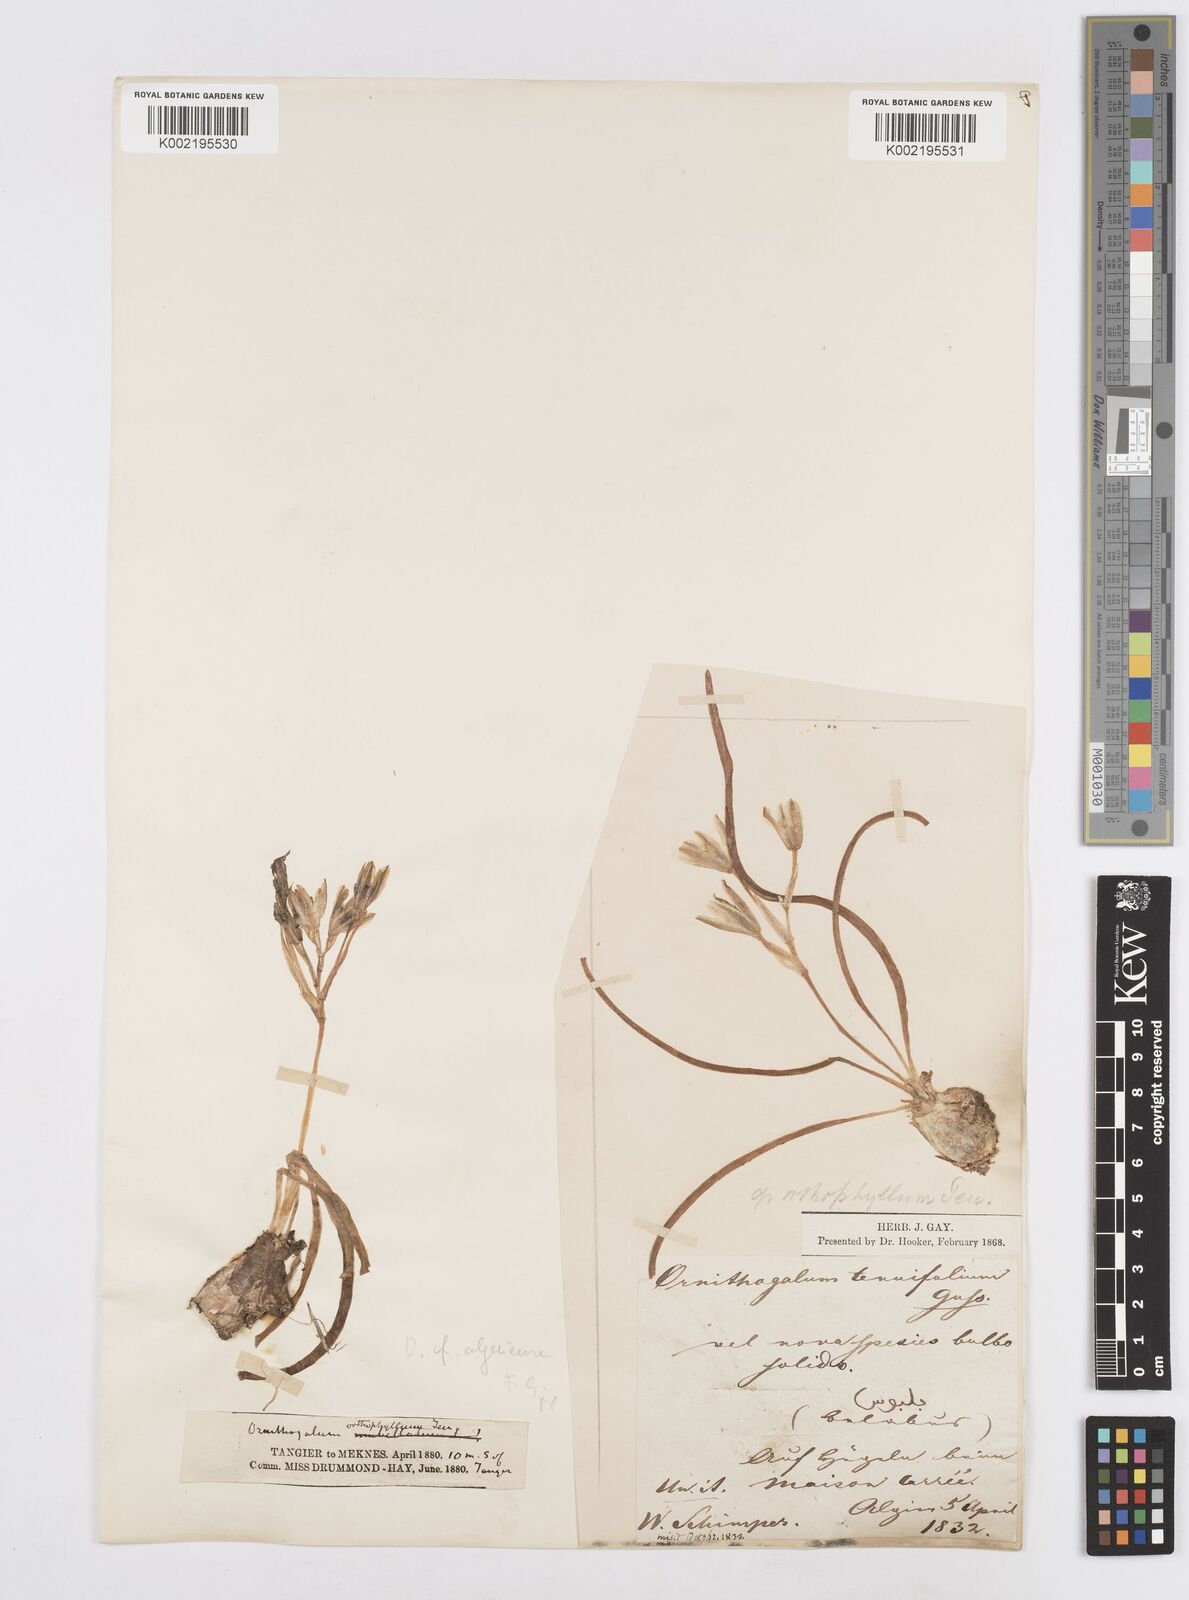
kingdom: Plantae
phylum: Tracheophyta
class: Liliopsida
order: Asparagales
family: Asparagaceae
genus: Ornithogalum
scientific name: Ornithogalum baeticum
